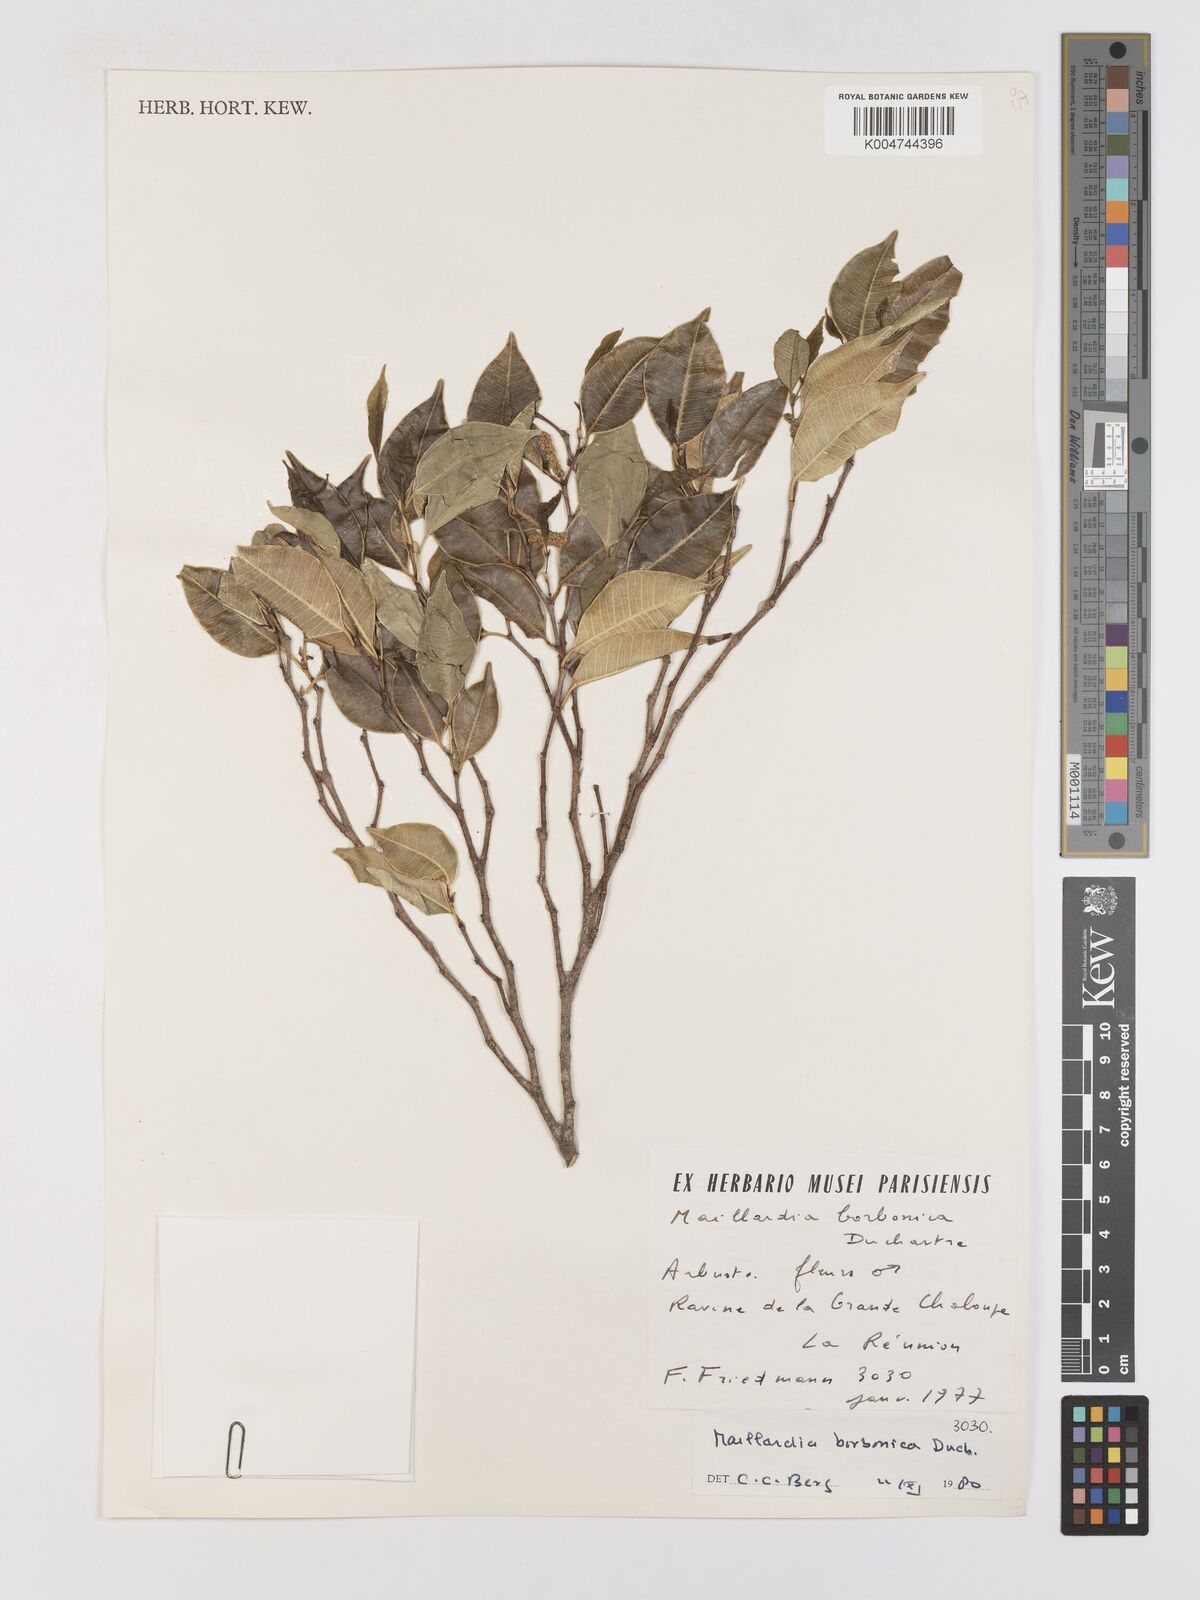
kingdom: Plantae
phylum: Tracheophyta
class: Magnoliopsida
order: Rosales
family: Moraceae
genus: Maillardia
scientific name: Maillardia borbonica
